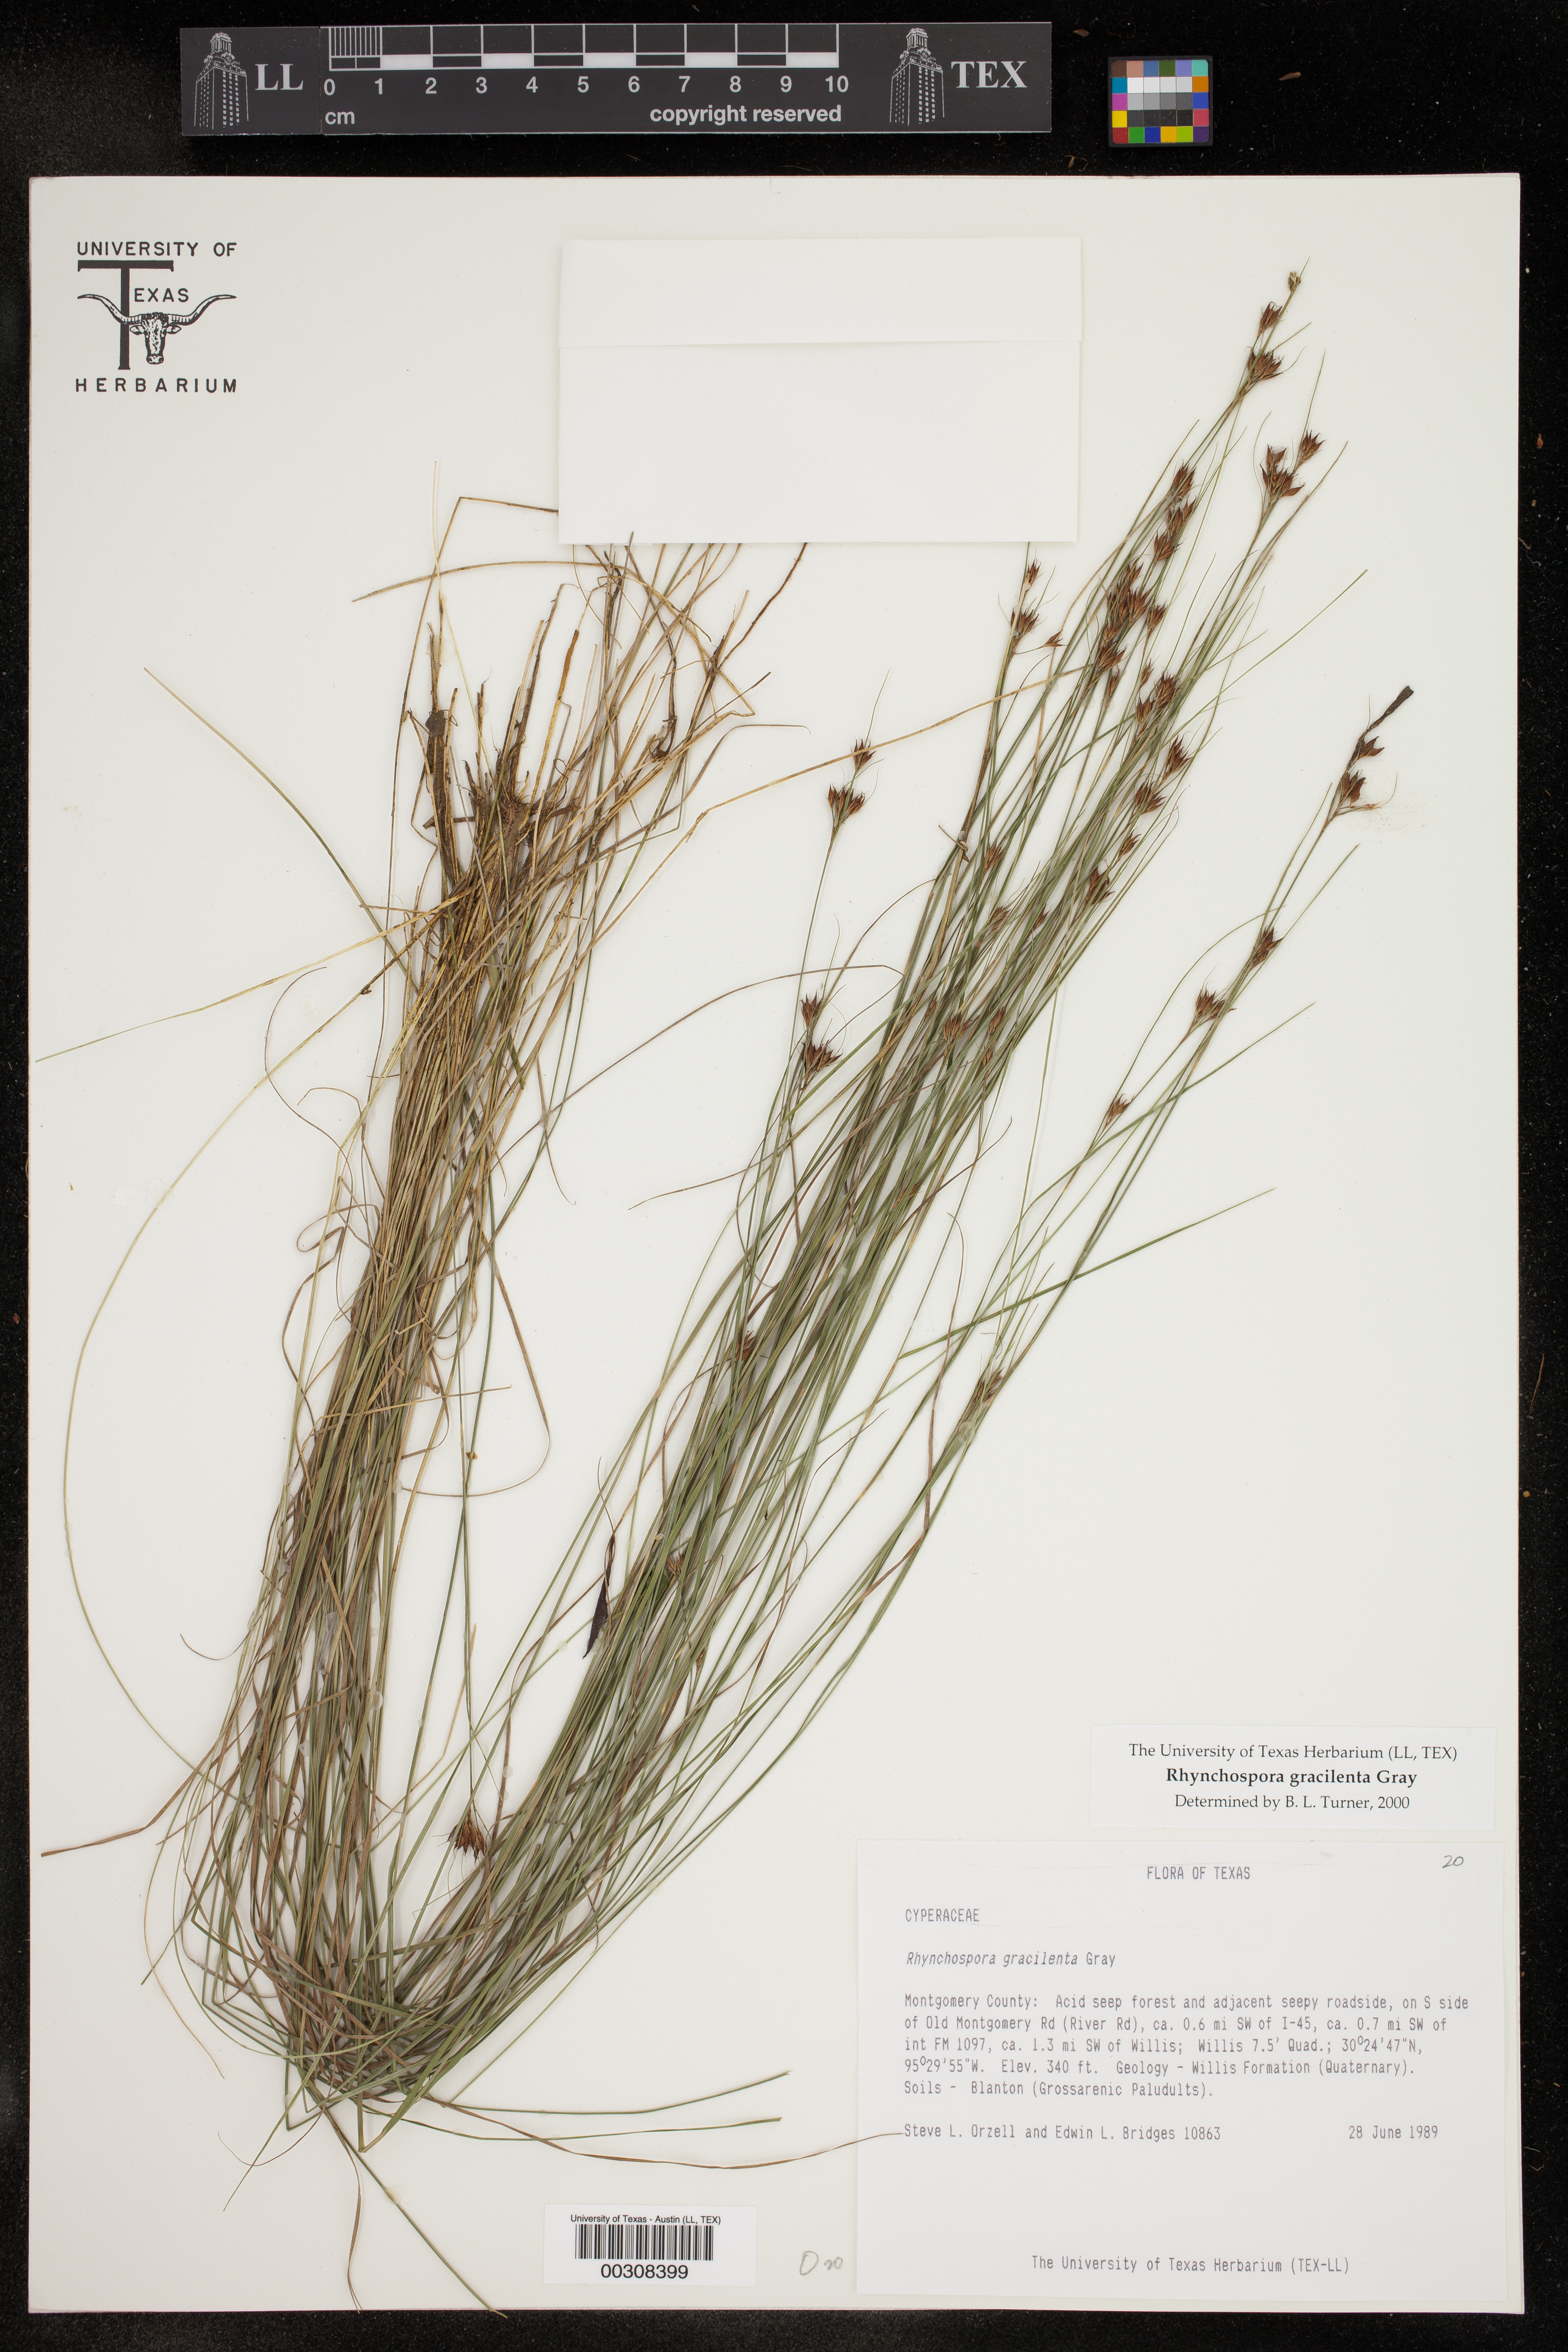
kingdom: Plantae
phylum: Tracheophyta
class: Liliopsida
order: Poales
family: Cyperaceae
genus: Rhynchospora
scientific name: Rhynchospora gracilenta
